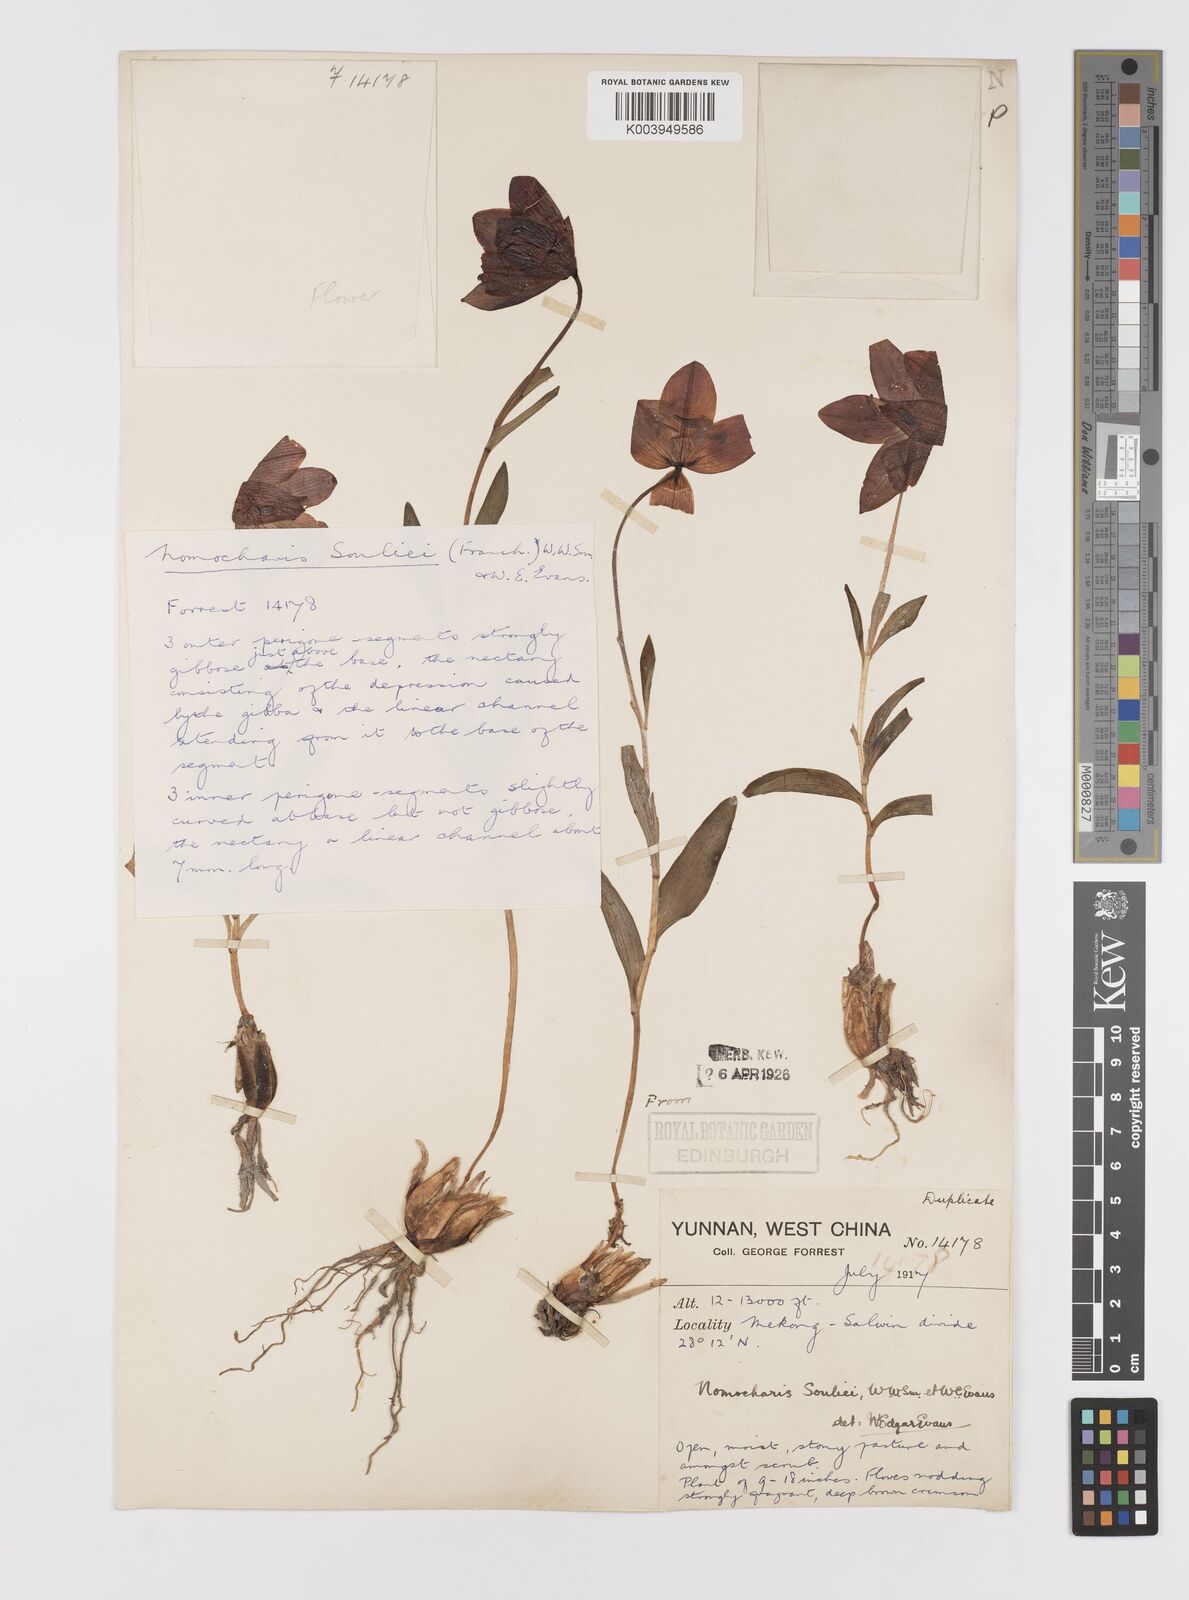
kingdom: Plantae
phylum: Tracheophyta
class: Liliopsida
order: Liliales
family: Liliaceae
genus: Lilium
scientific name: Lilium souliei
